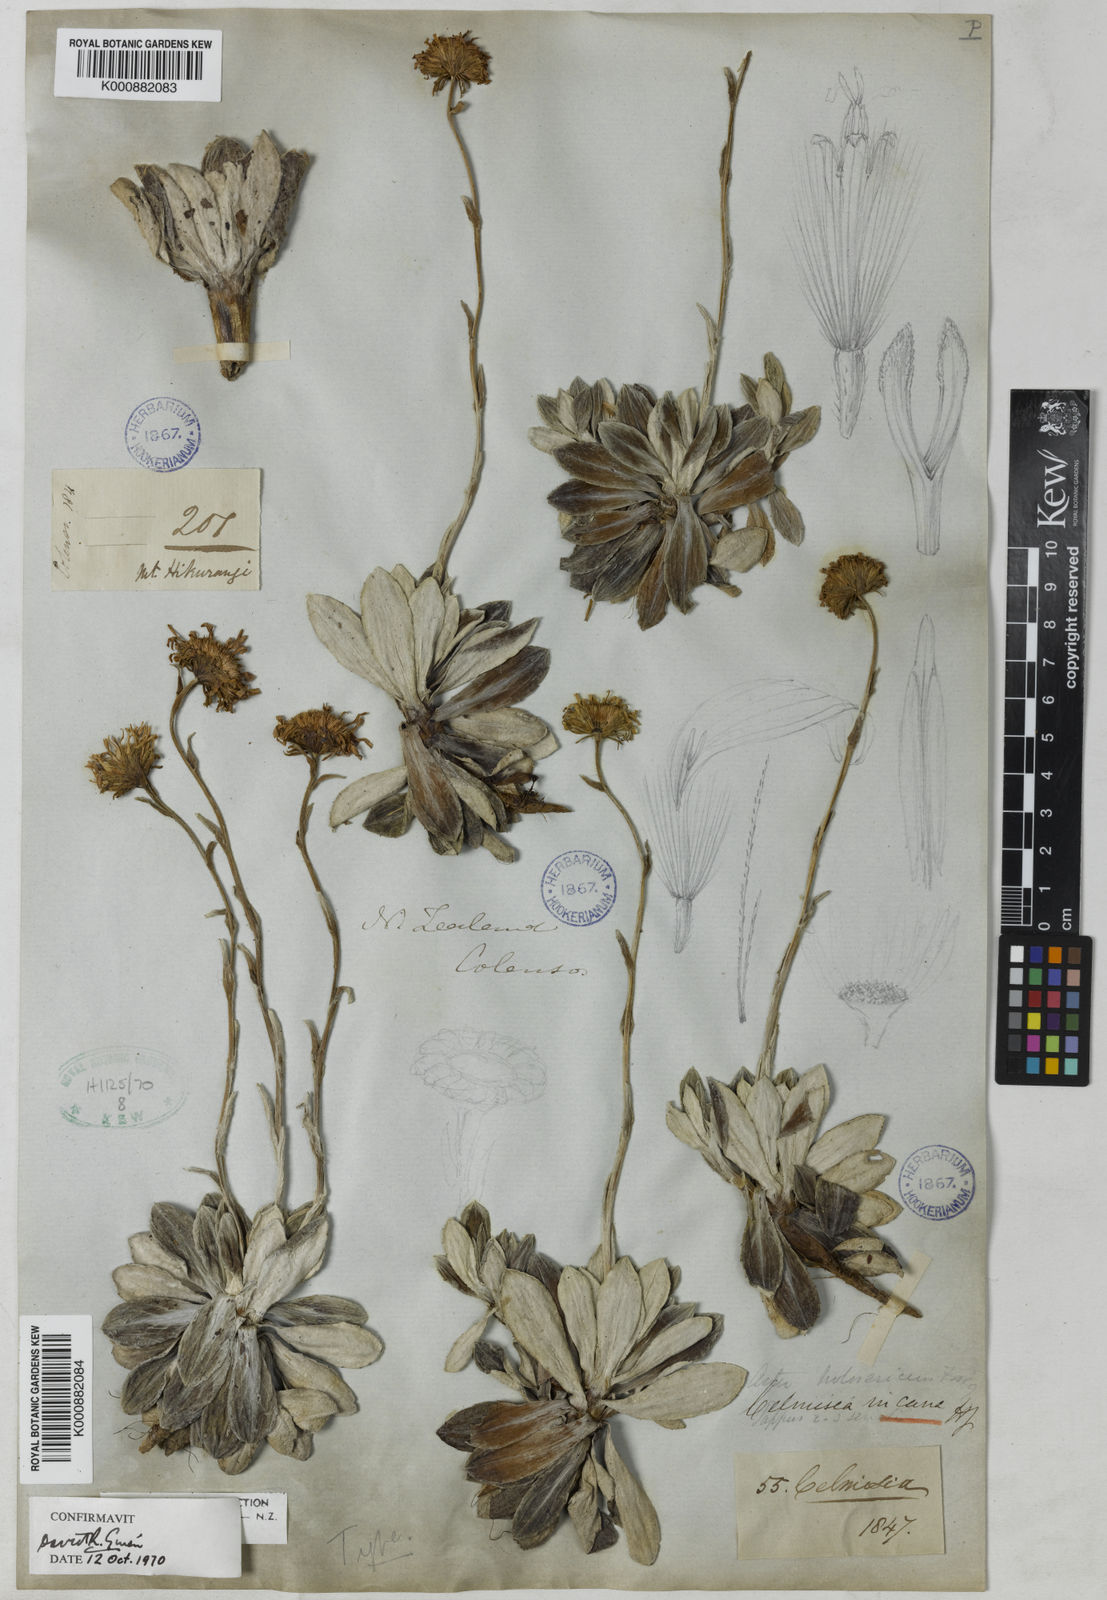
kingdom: Plantae
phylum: Tracheophyta
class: Magnoliopsida
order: Asterales
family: Asteraceae
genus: Celmisia
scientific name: Celmisia incana
